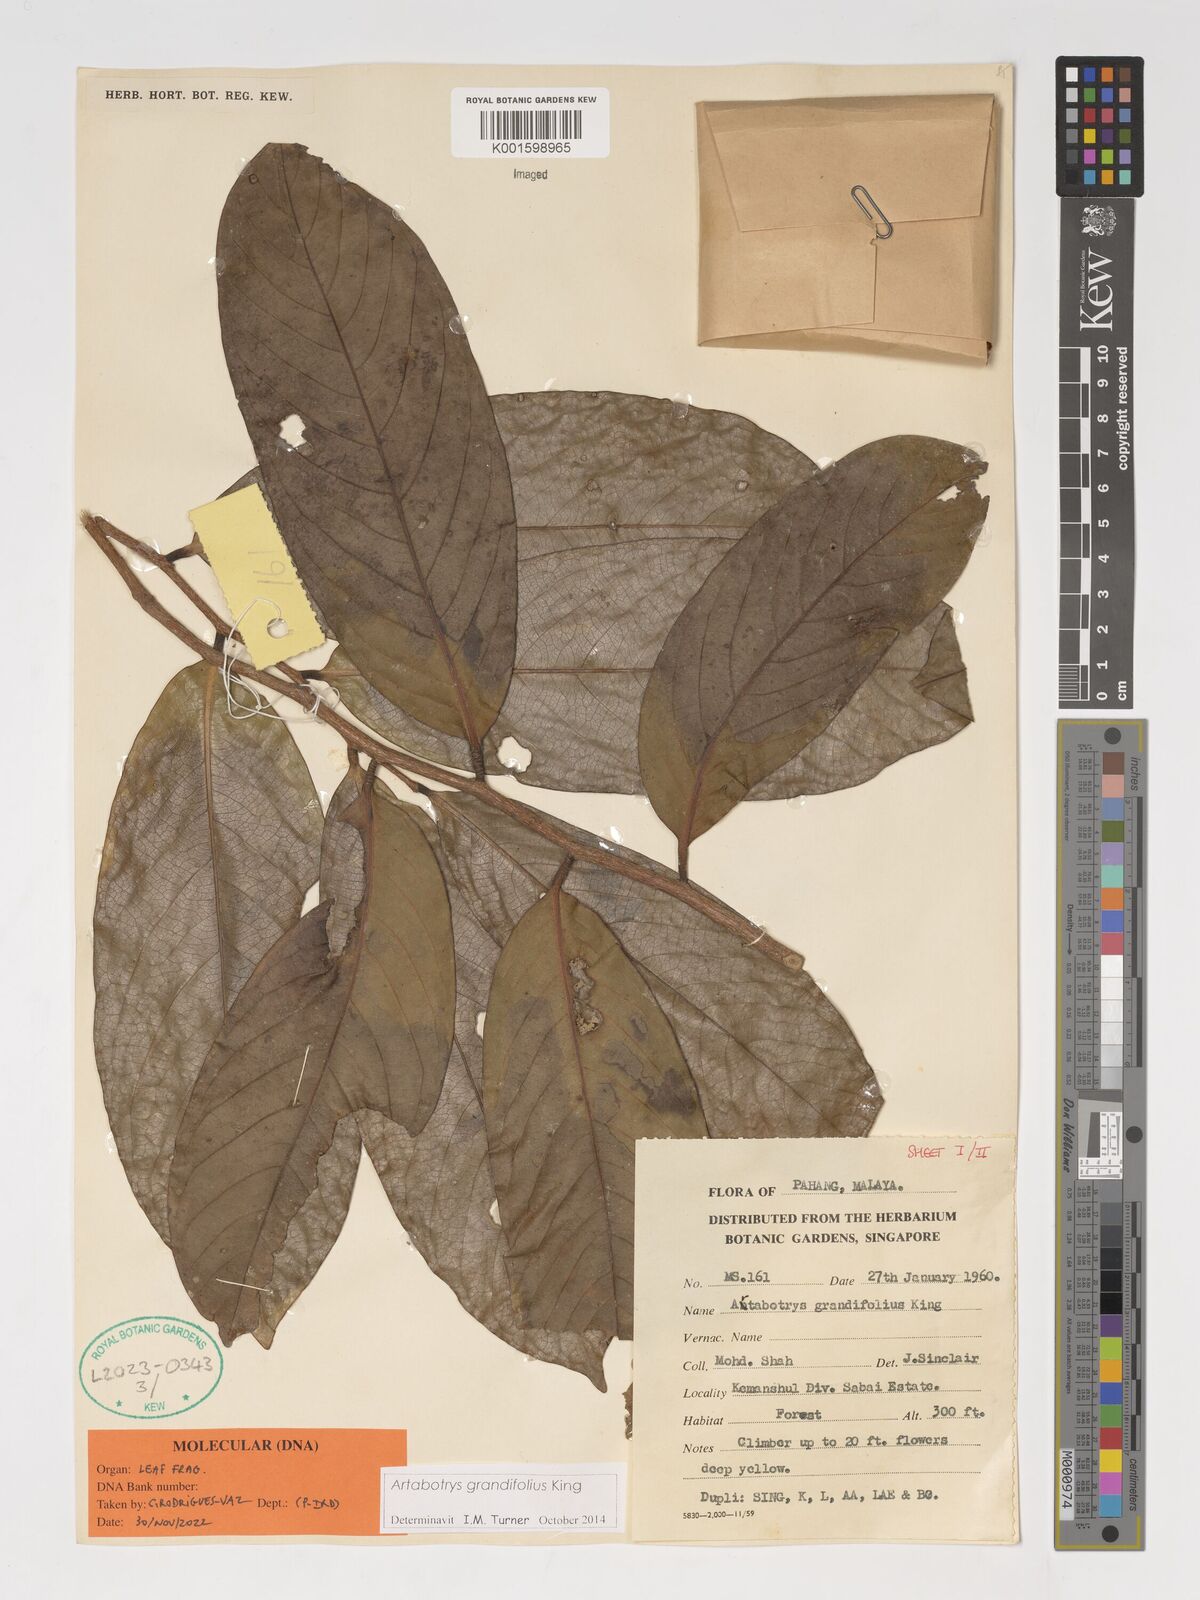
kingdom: Plantae
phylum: Tracheophyta
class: Magnoliopsida
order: Magnoliales
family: Annonaceae
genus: Artabotrys
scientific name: Artabotrys grandifolius
